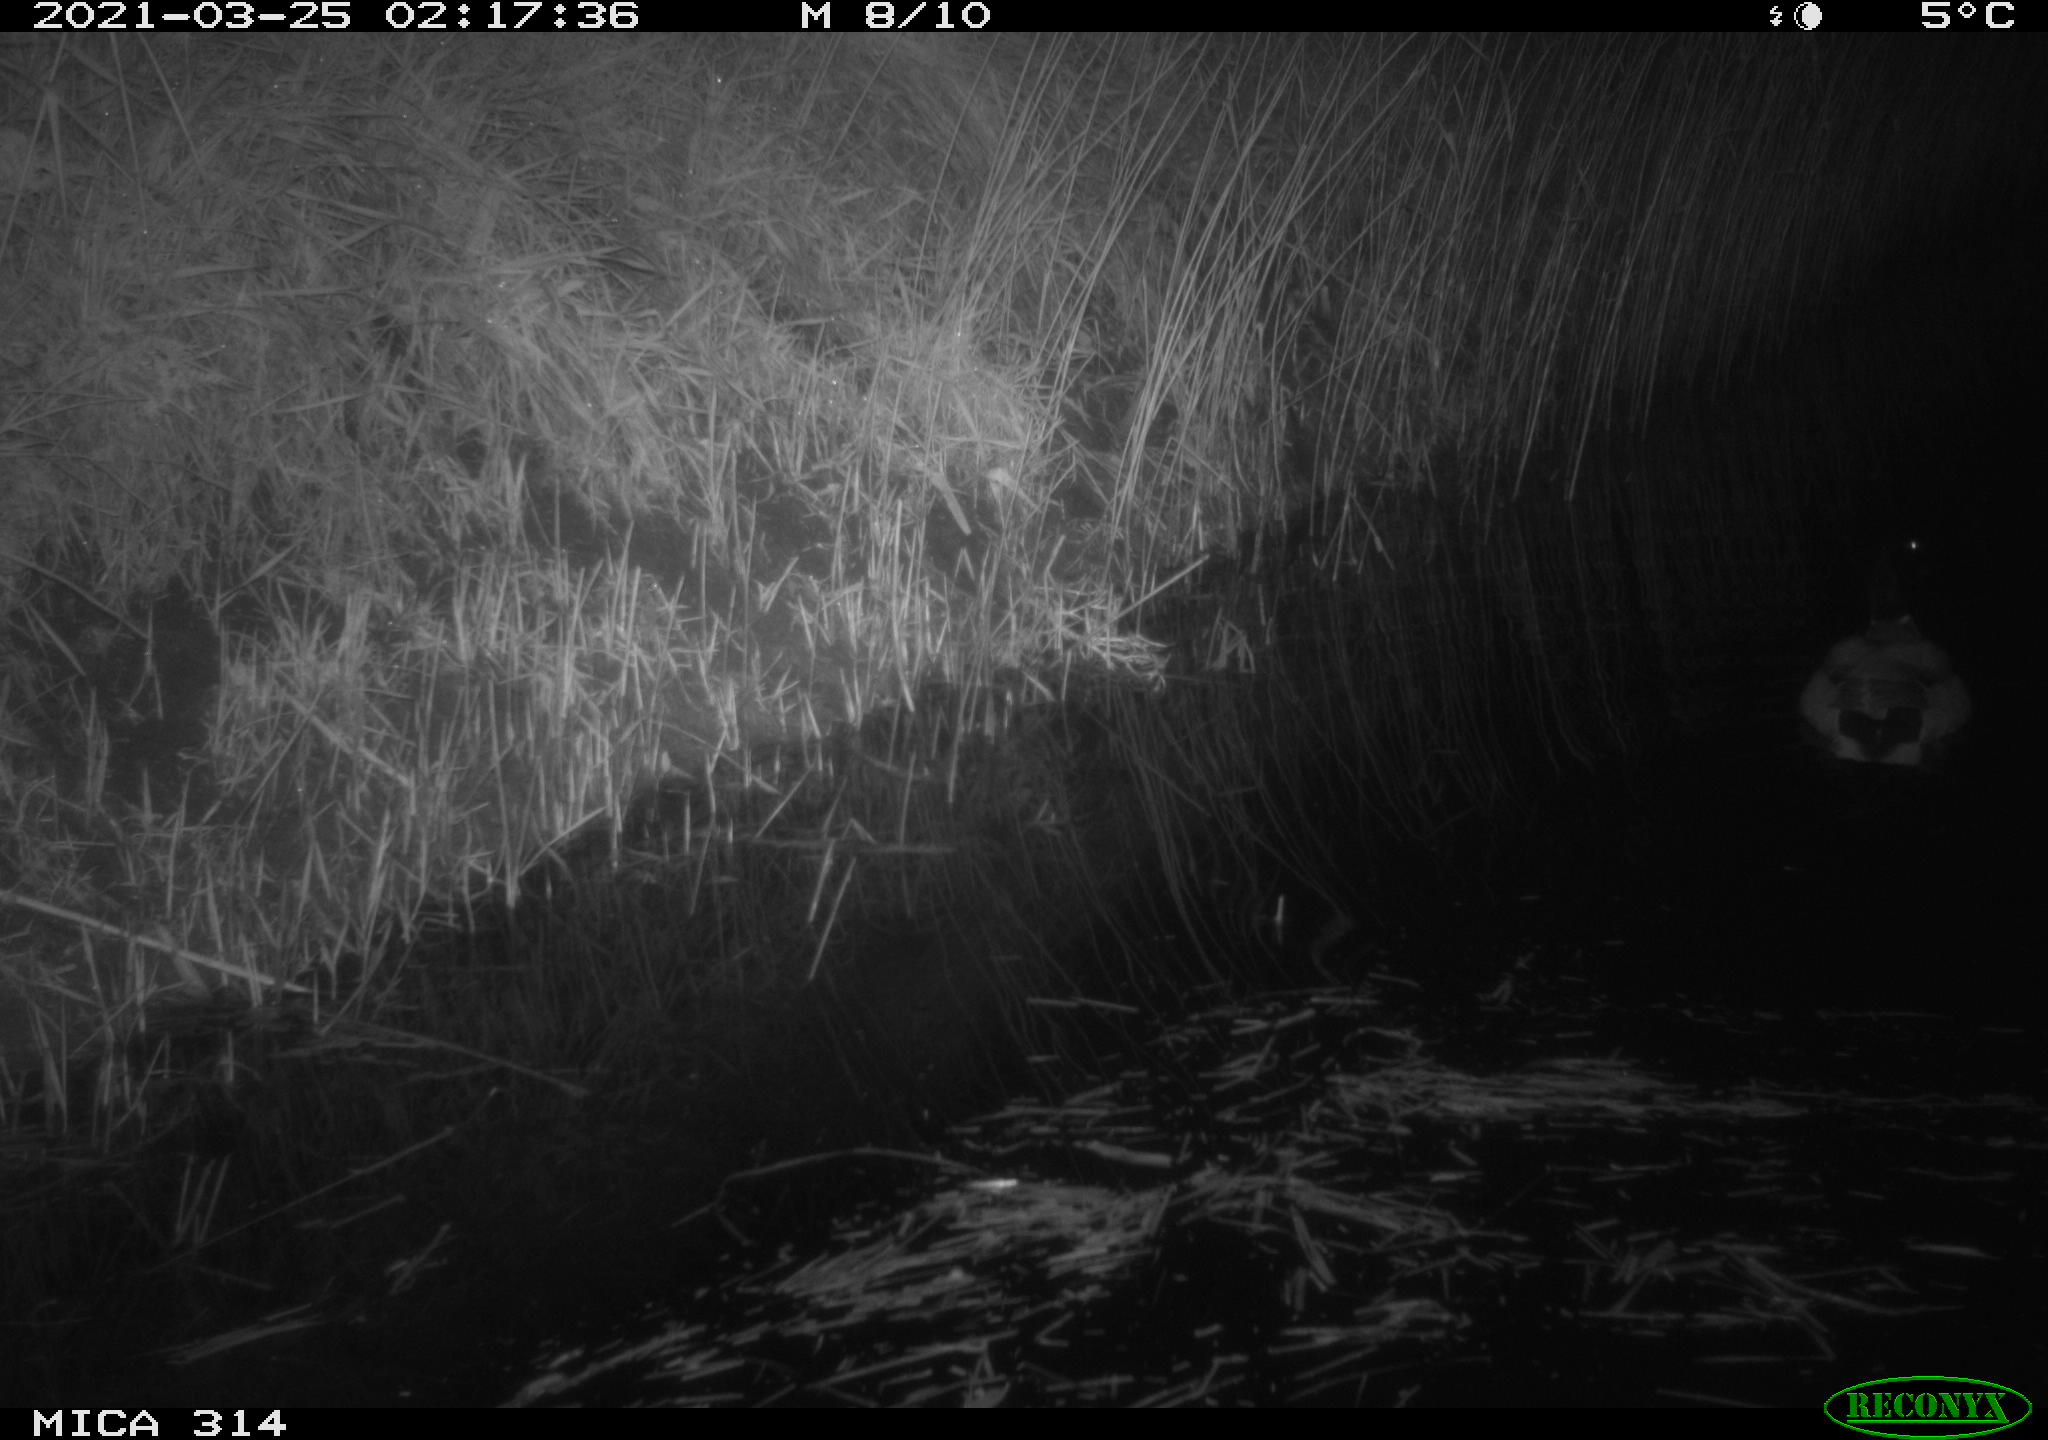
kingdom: Animalia
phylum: Chordata
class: Aves
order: Anseriformes
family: Anatidae
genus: Anas
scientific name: Anas platyrhynchos
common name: Mallard
